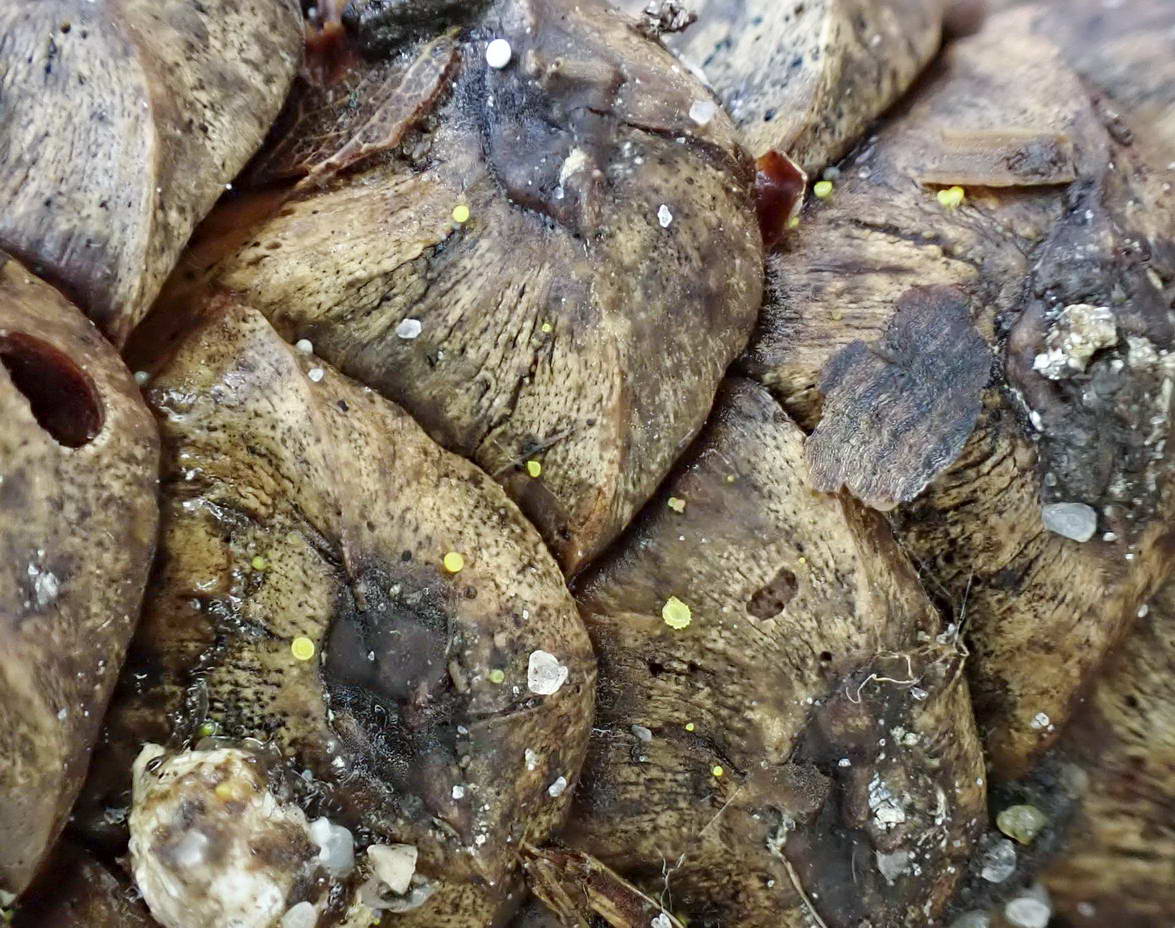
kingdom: Fungi
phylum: Ascomycota
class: Leotiomycetes
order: Helotiales
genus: Lemalis
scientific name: Lemalis aurea
